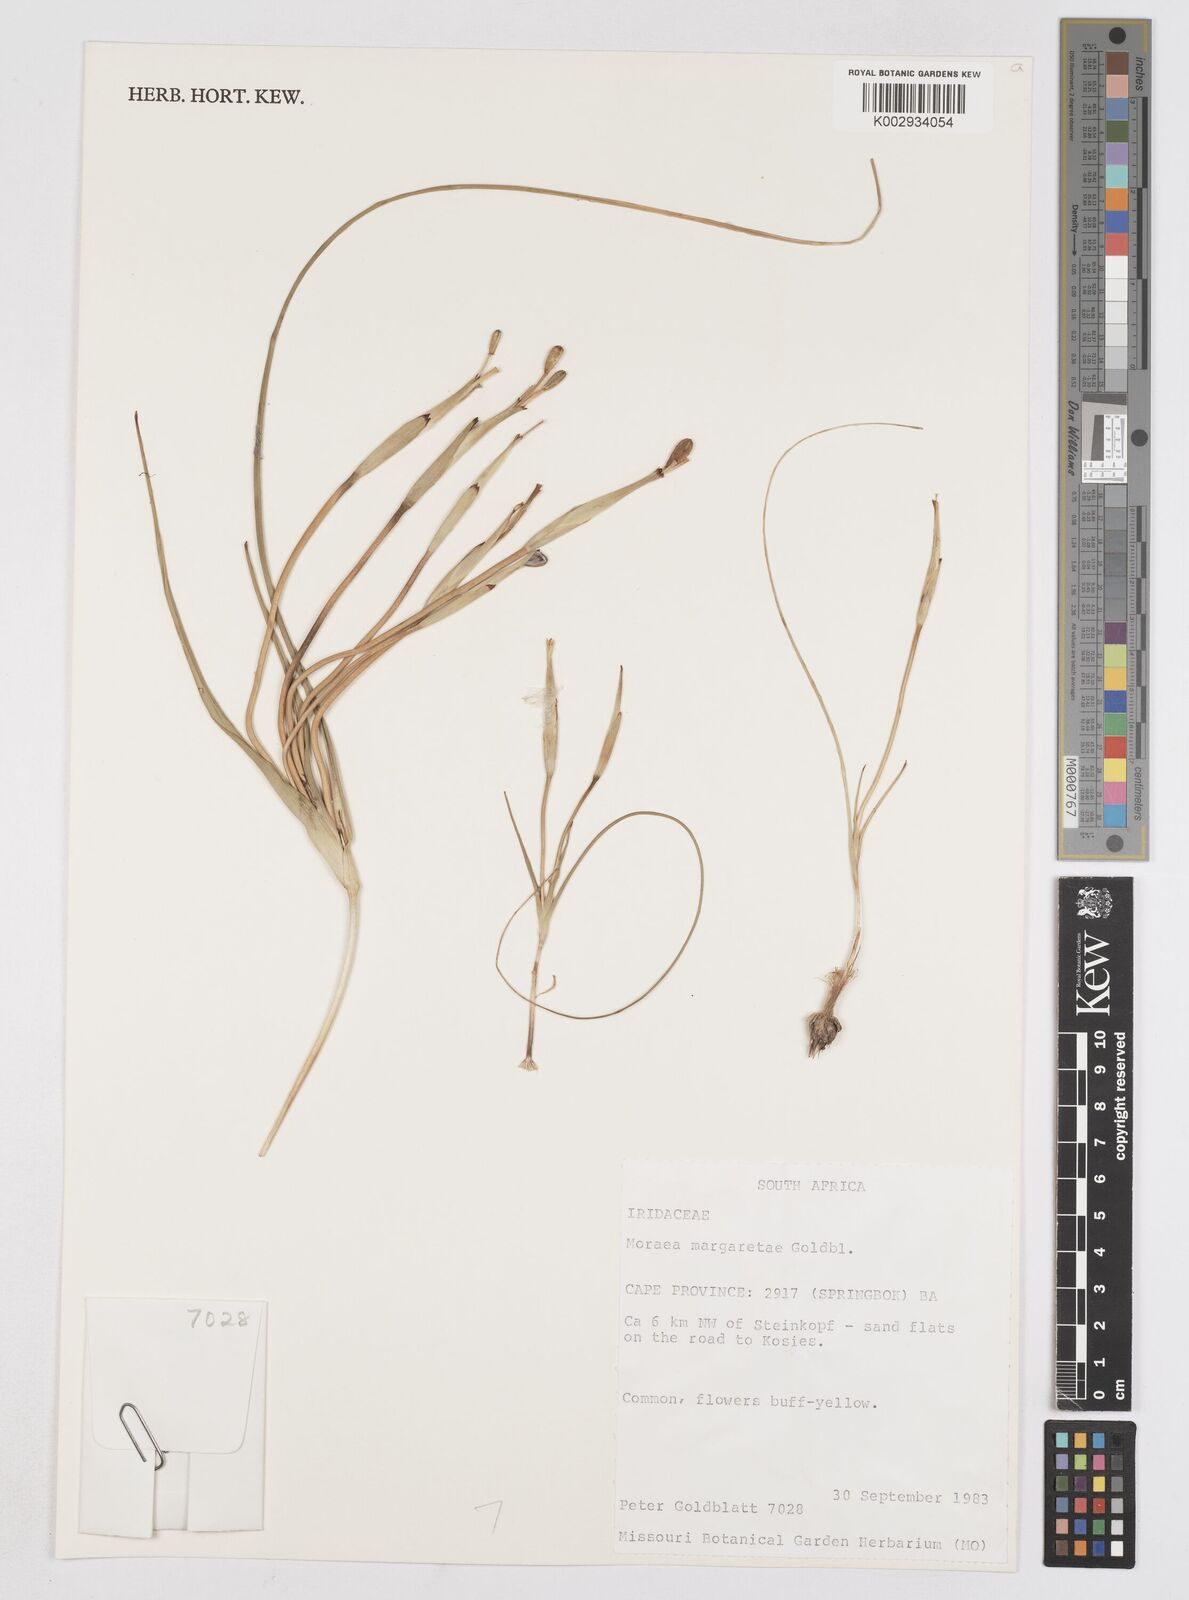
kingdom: Plantae
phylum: Tracheophyta
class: Liliopsida
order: Asparagales
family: Iridaceae
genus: Moraea
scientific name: Moraea margaretae
